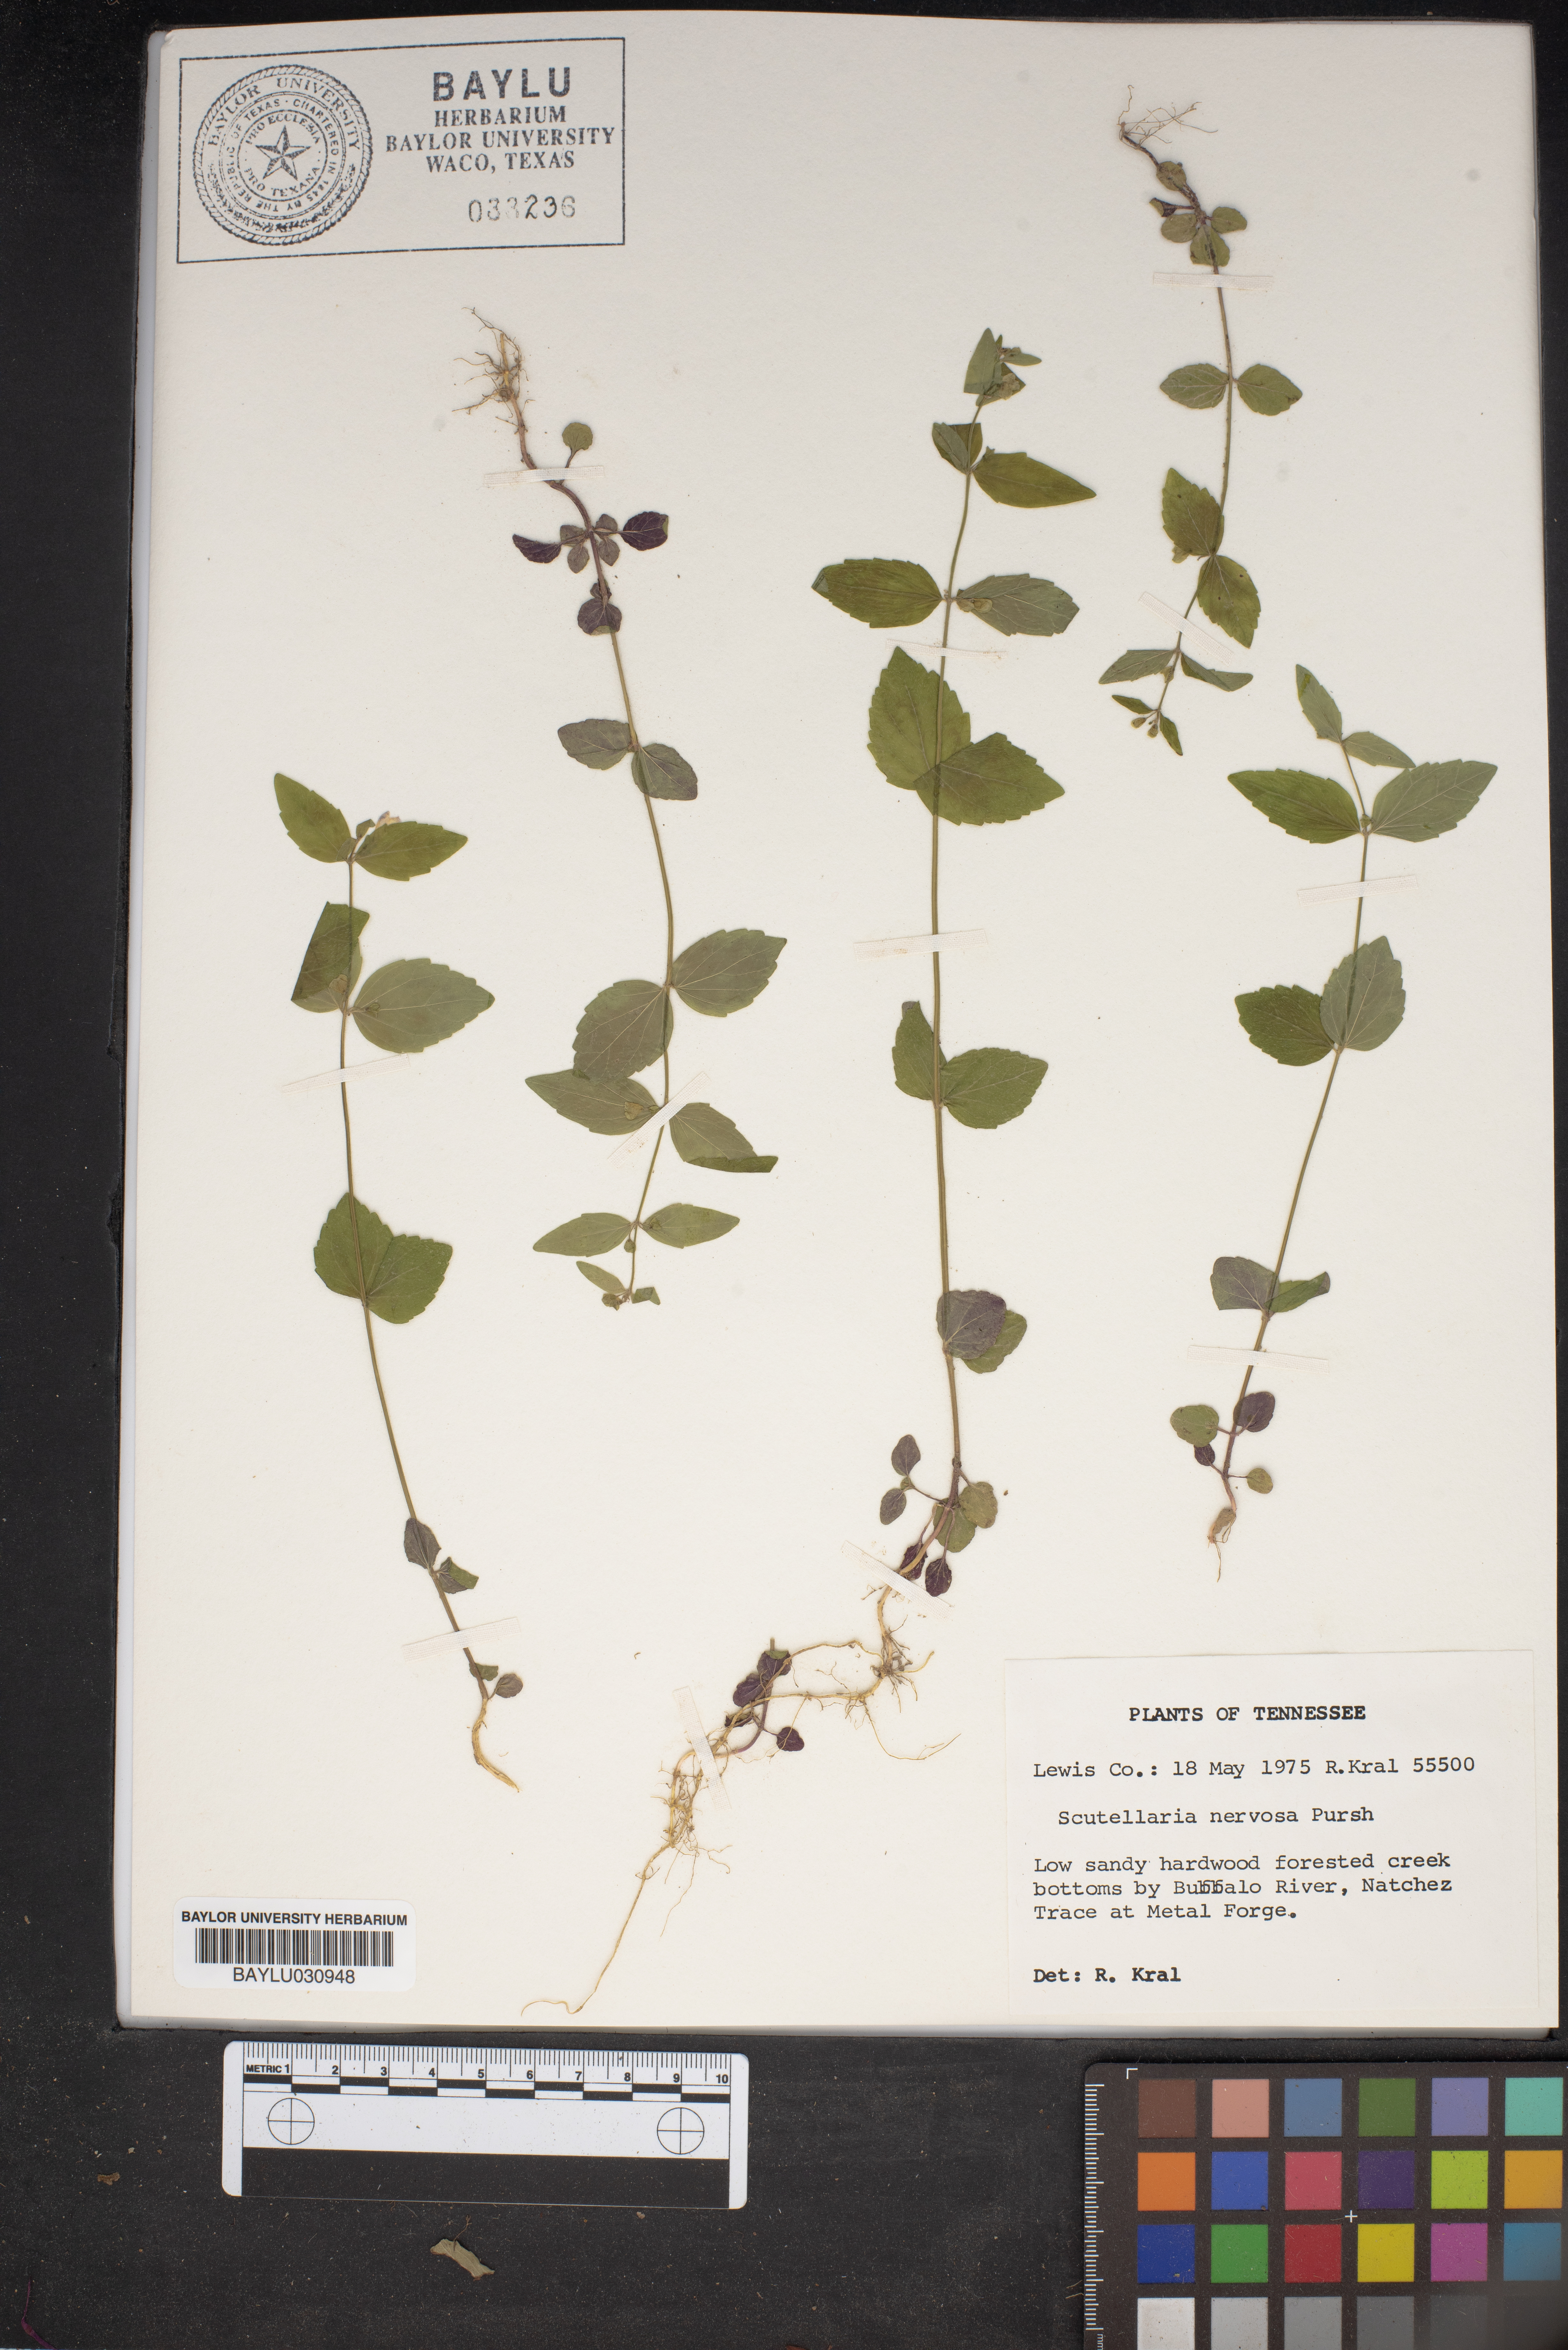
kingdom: Plantae
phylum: Tracheophyta
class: Magnoliopsida
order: Lamiales
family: Lamiaceae
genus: Scutellaria
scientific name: Scutellaria nervosa
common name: Bottomland skullcap
